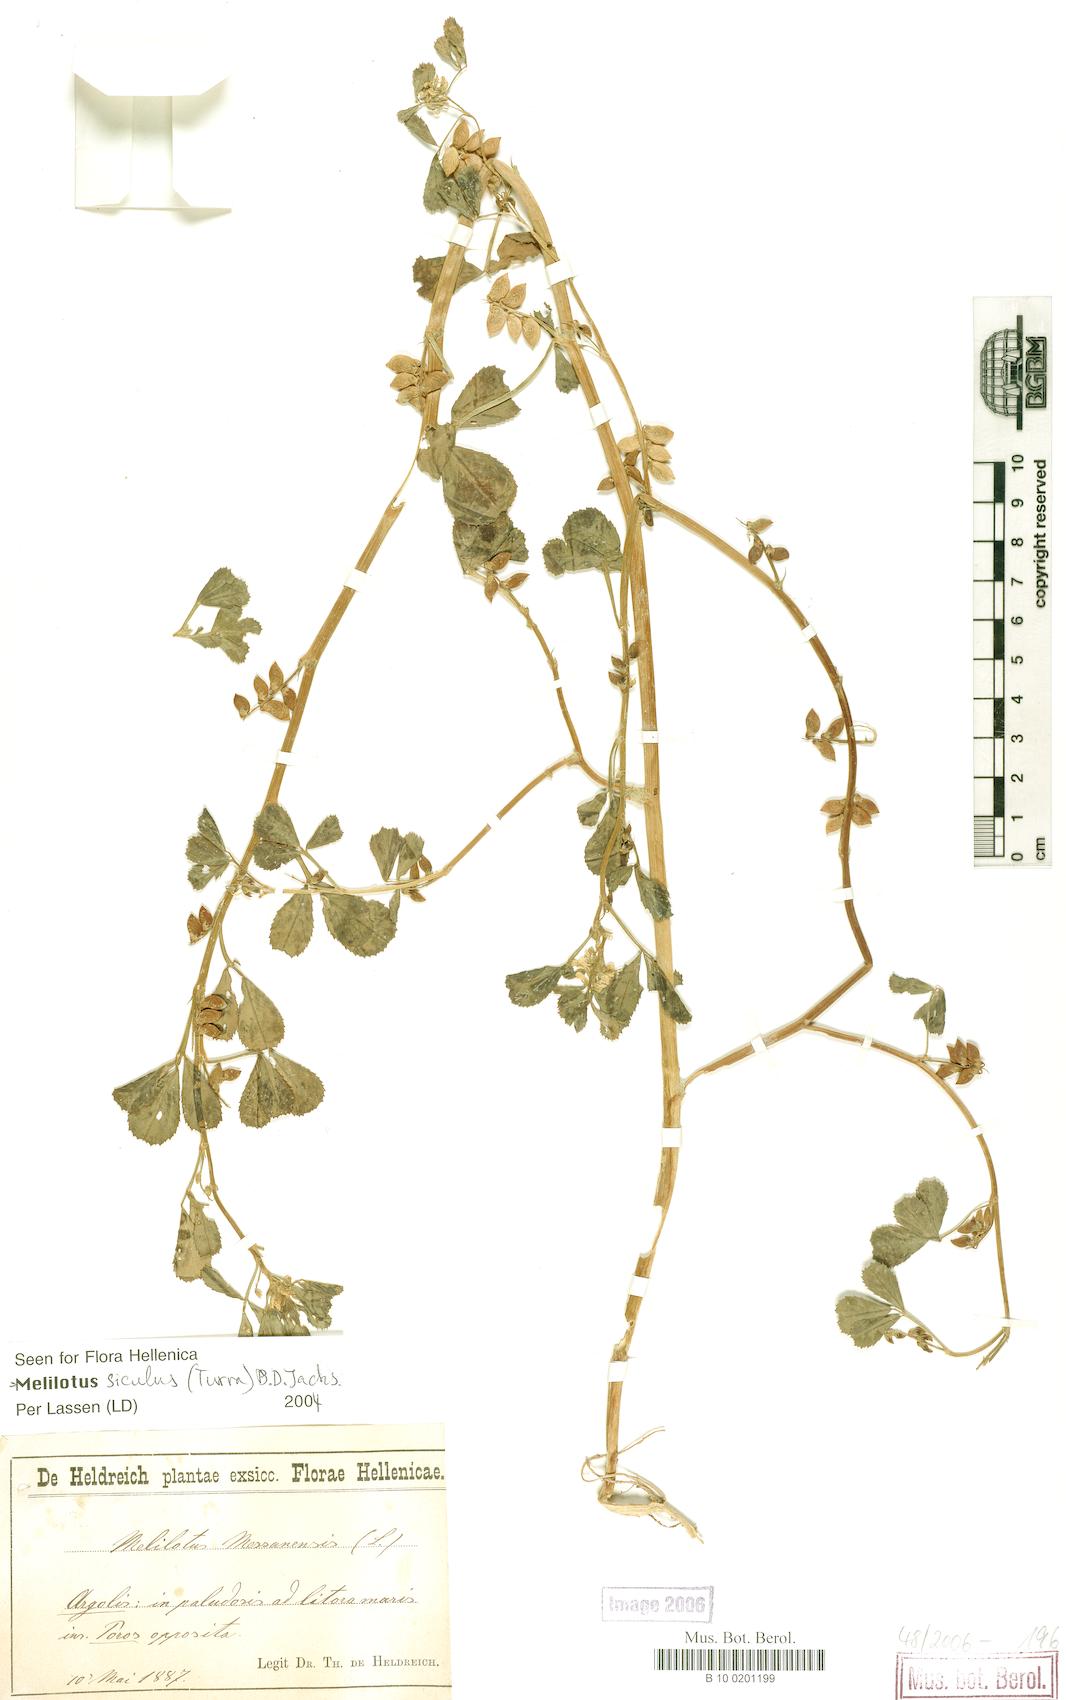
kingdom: Plantae
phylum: Tracheophyta
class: Magnoliopsida
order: Fabales
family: Fabaceae
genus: Melilotus
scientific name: Melilotus siculus
